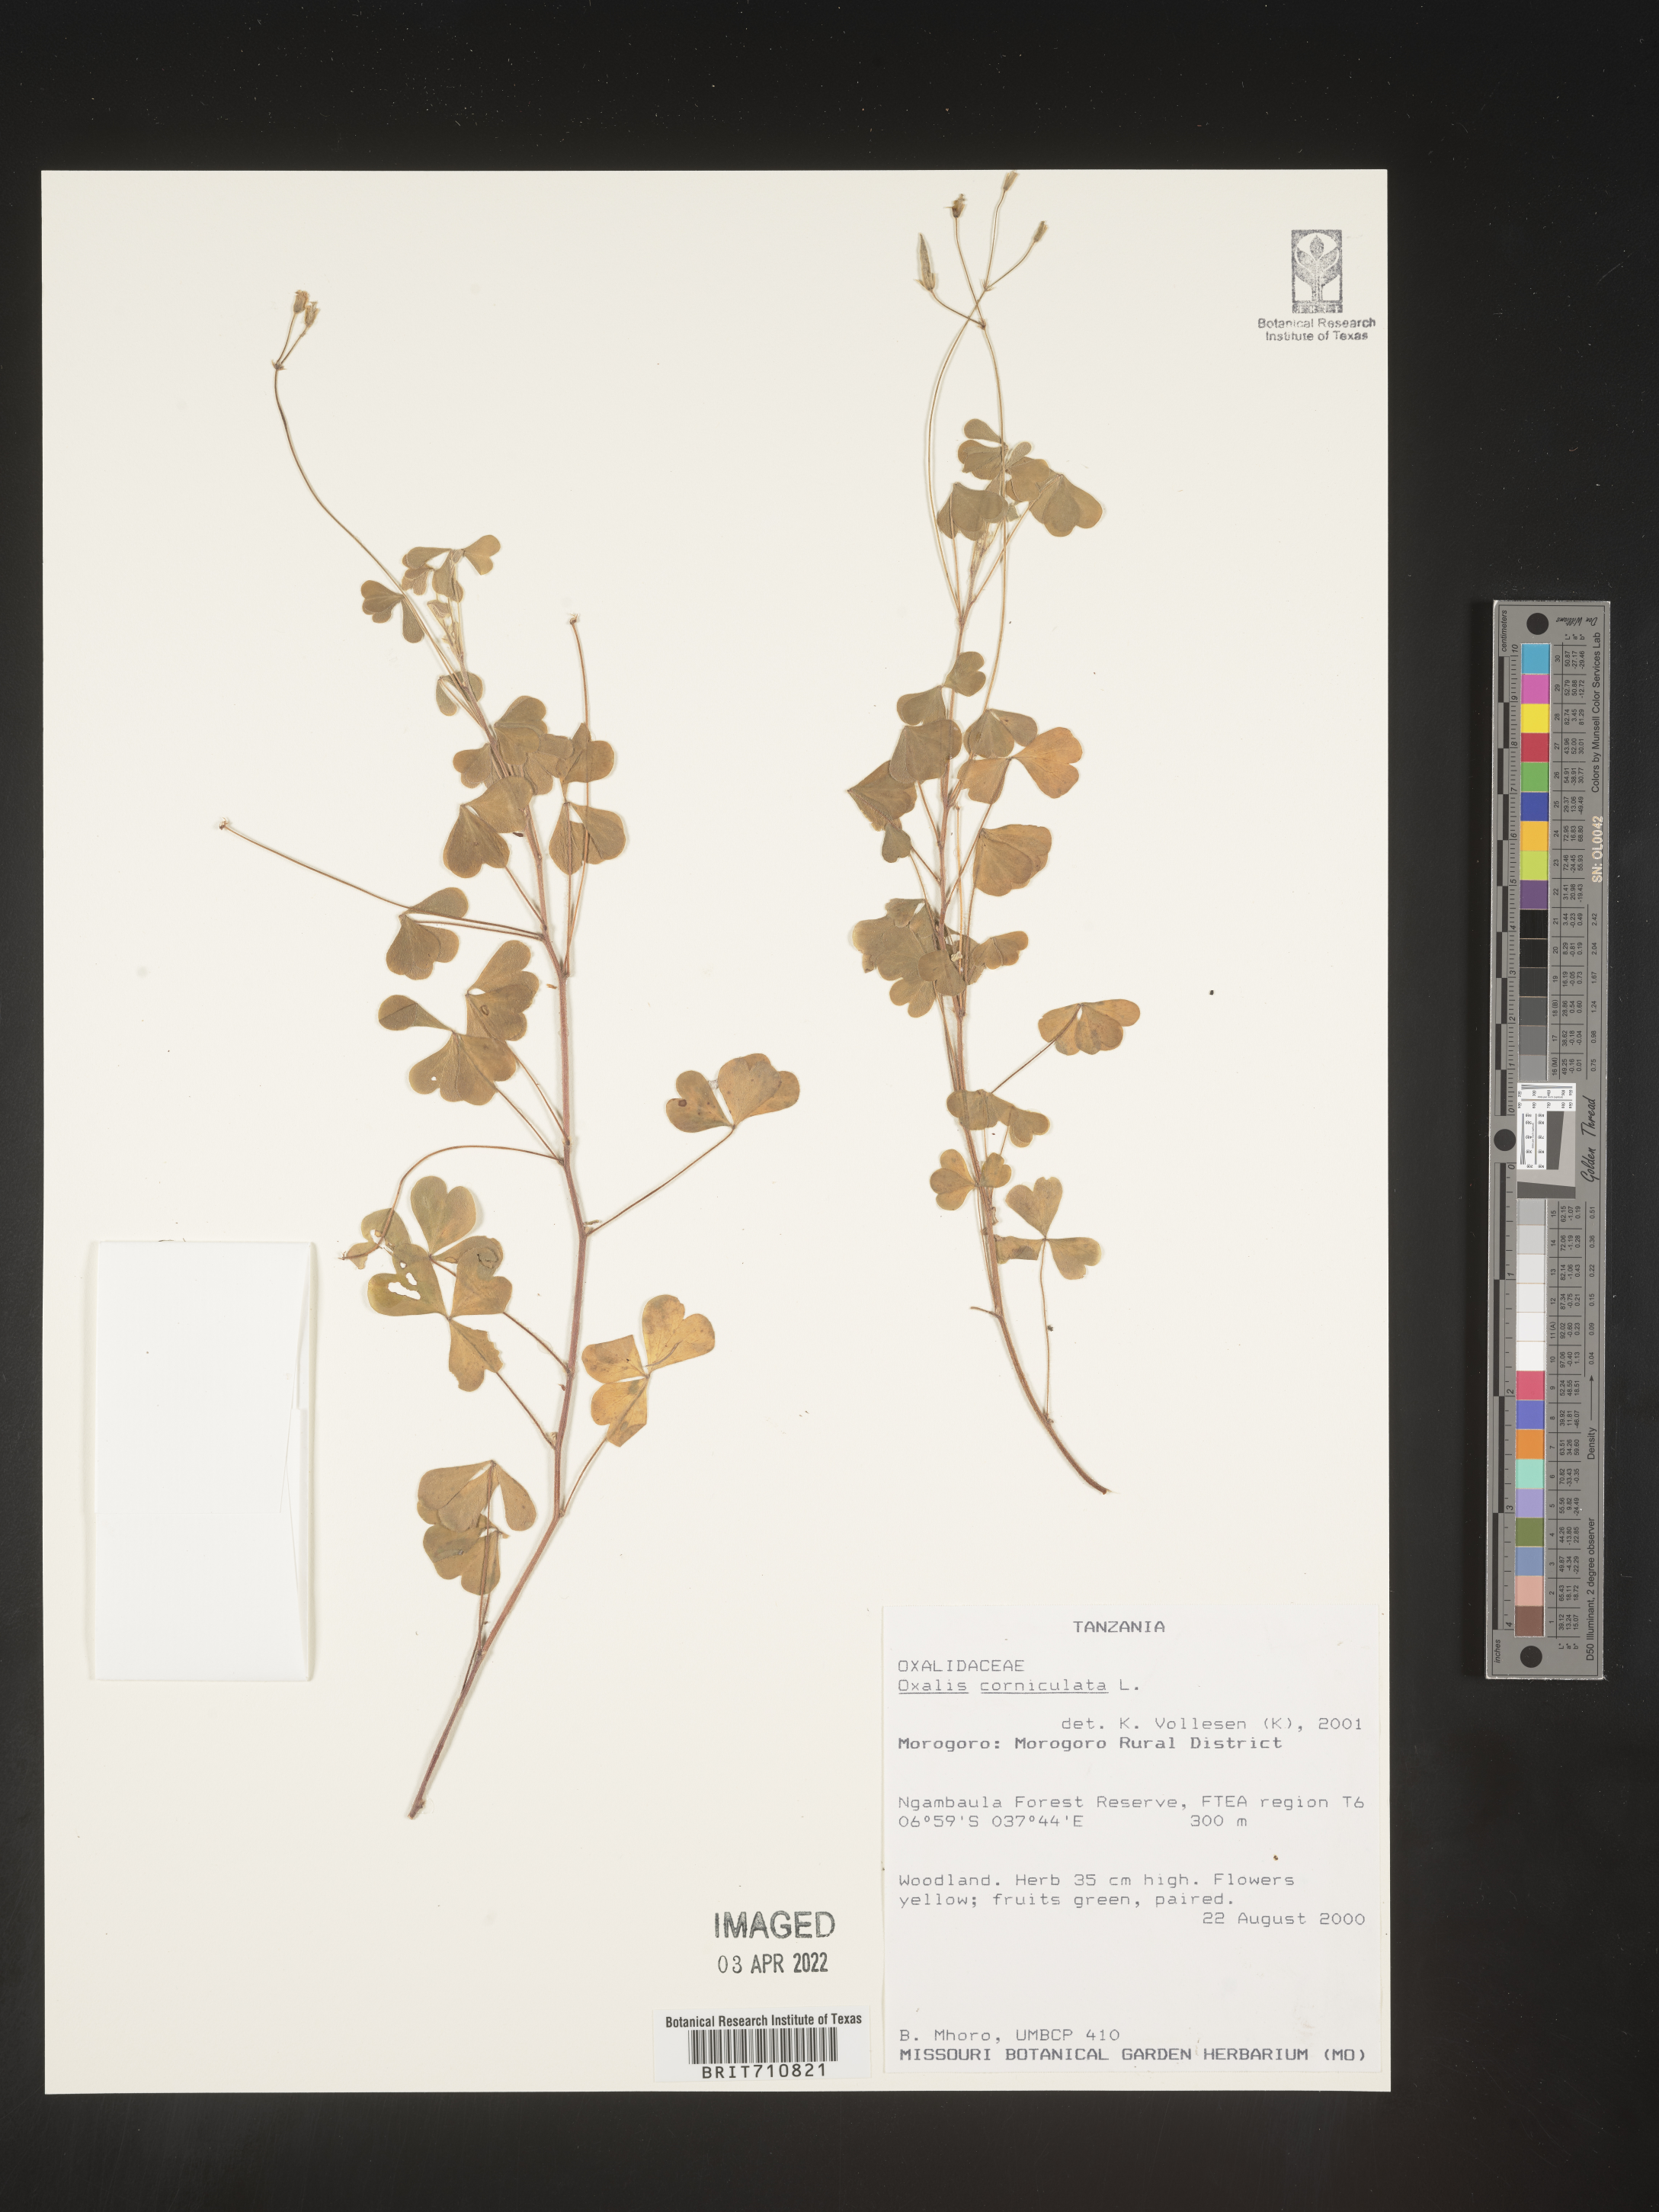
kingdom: Plantae
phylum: Tracheophyta
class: Magnoliopsida
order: Oxalidales
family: Oxalidaceae
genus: Oxalis
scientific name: Oxalis
